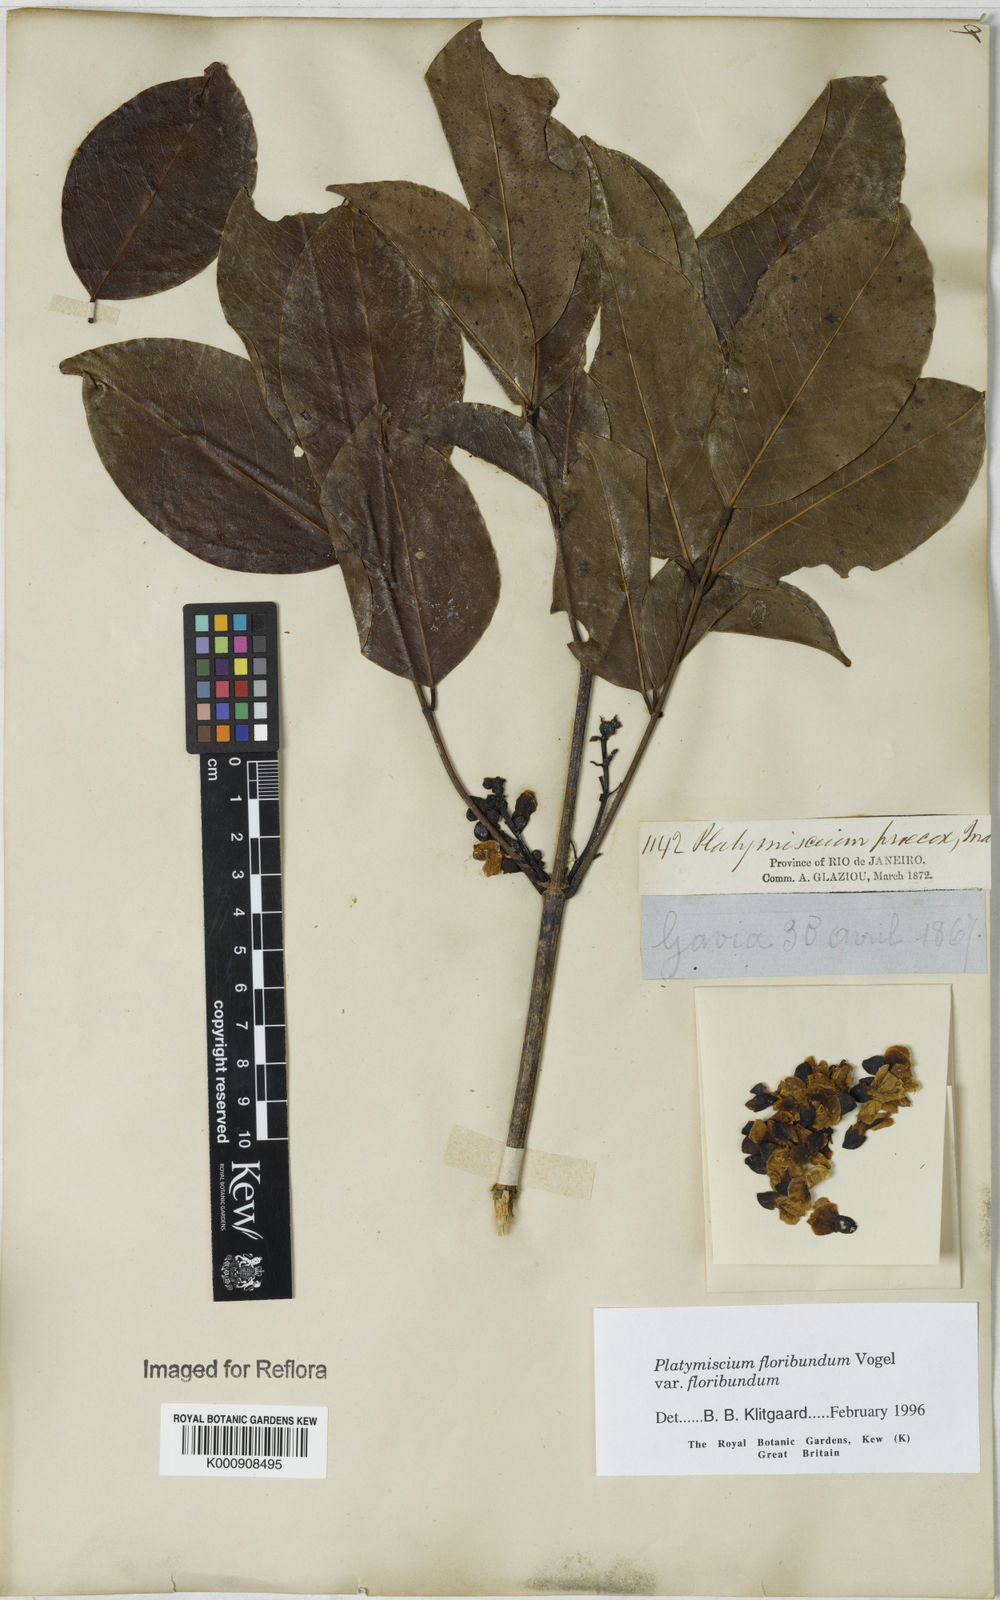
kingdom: Plantae
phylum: Tracheophyta
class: Magnoliopsida
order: Fabales
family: Fabaceae
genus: Platymiscium
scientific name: Platymiscium floribundum
